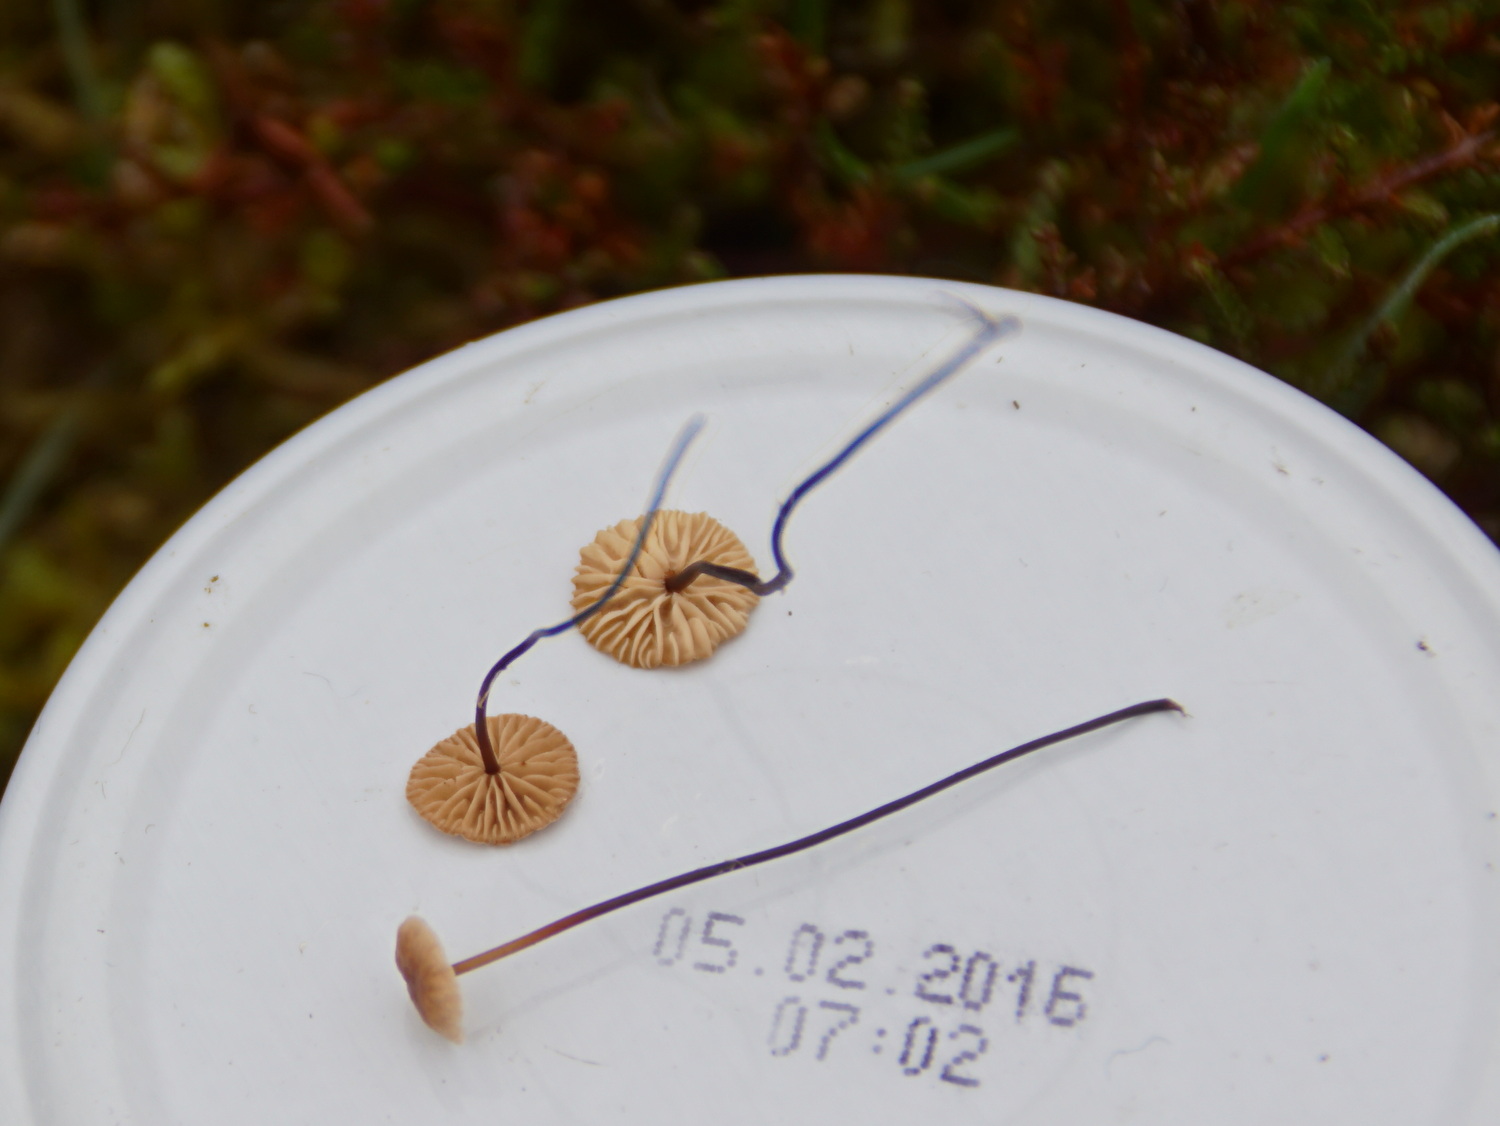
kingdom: Fungi
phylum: Basidiomycota
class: Agaricomycetes
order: Agaricales
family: Omphalotaceae
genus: Gymnopus
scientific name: Gymnopus androsaceus
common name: trådstokket fladhat
